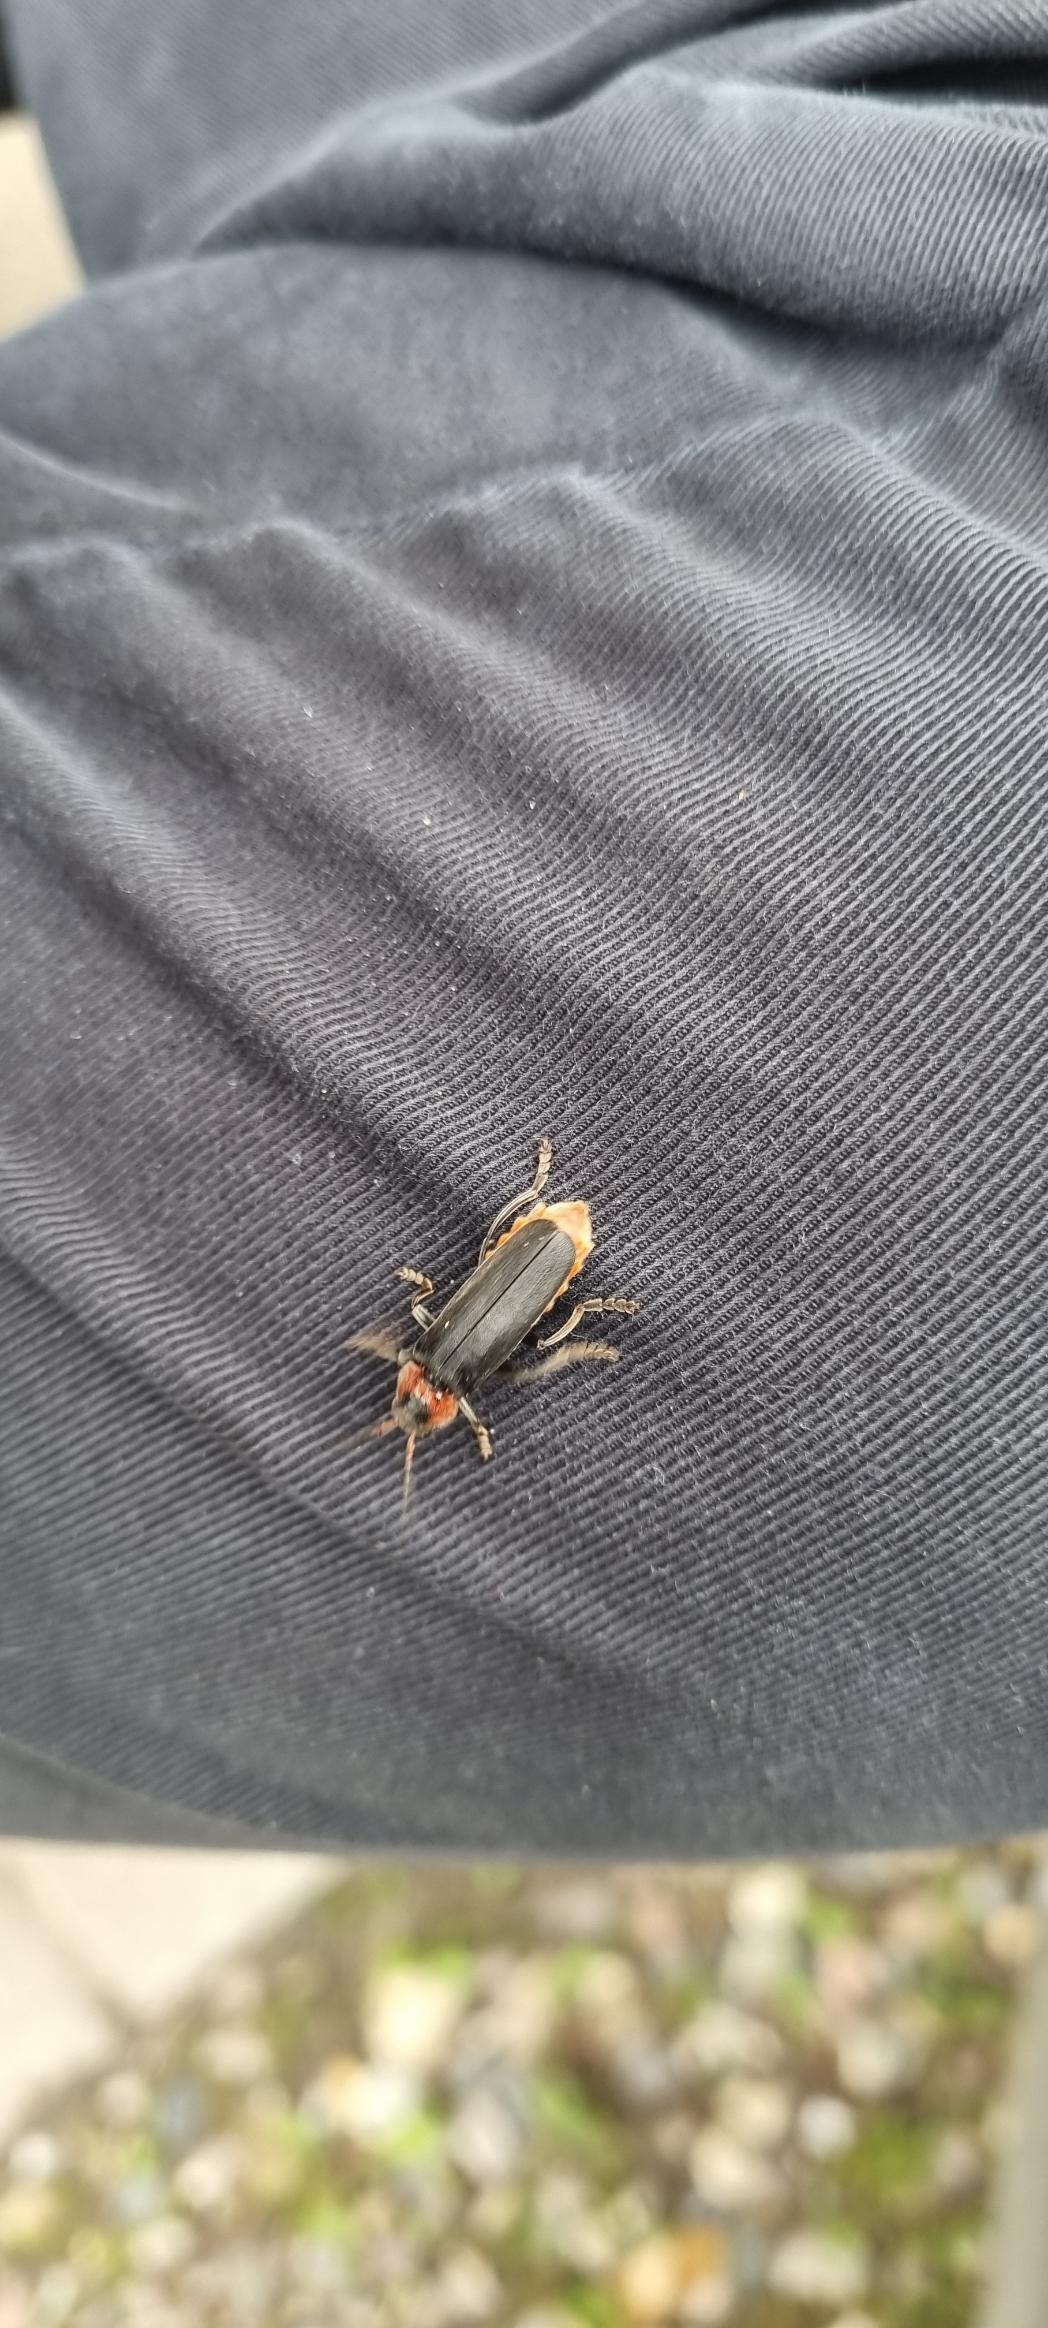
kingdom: Animalia
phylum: Arthropoda
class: Insecta
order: Coleoptera
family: Cantharidae
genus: Cantharis
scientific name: Cantharis fusca
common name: Stor blødvinge
